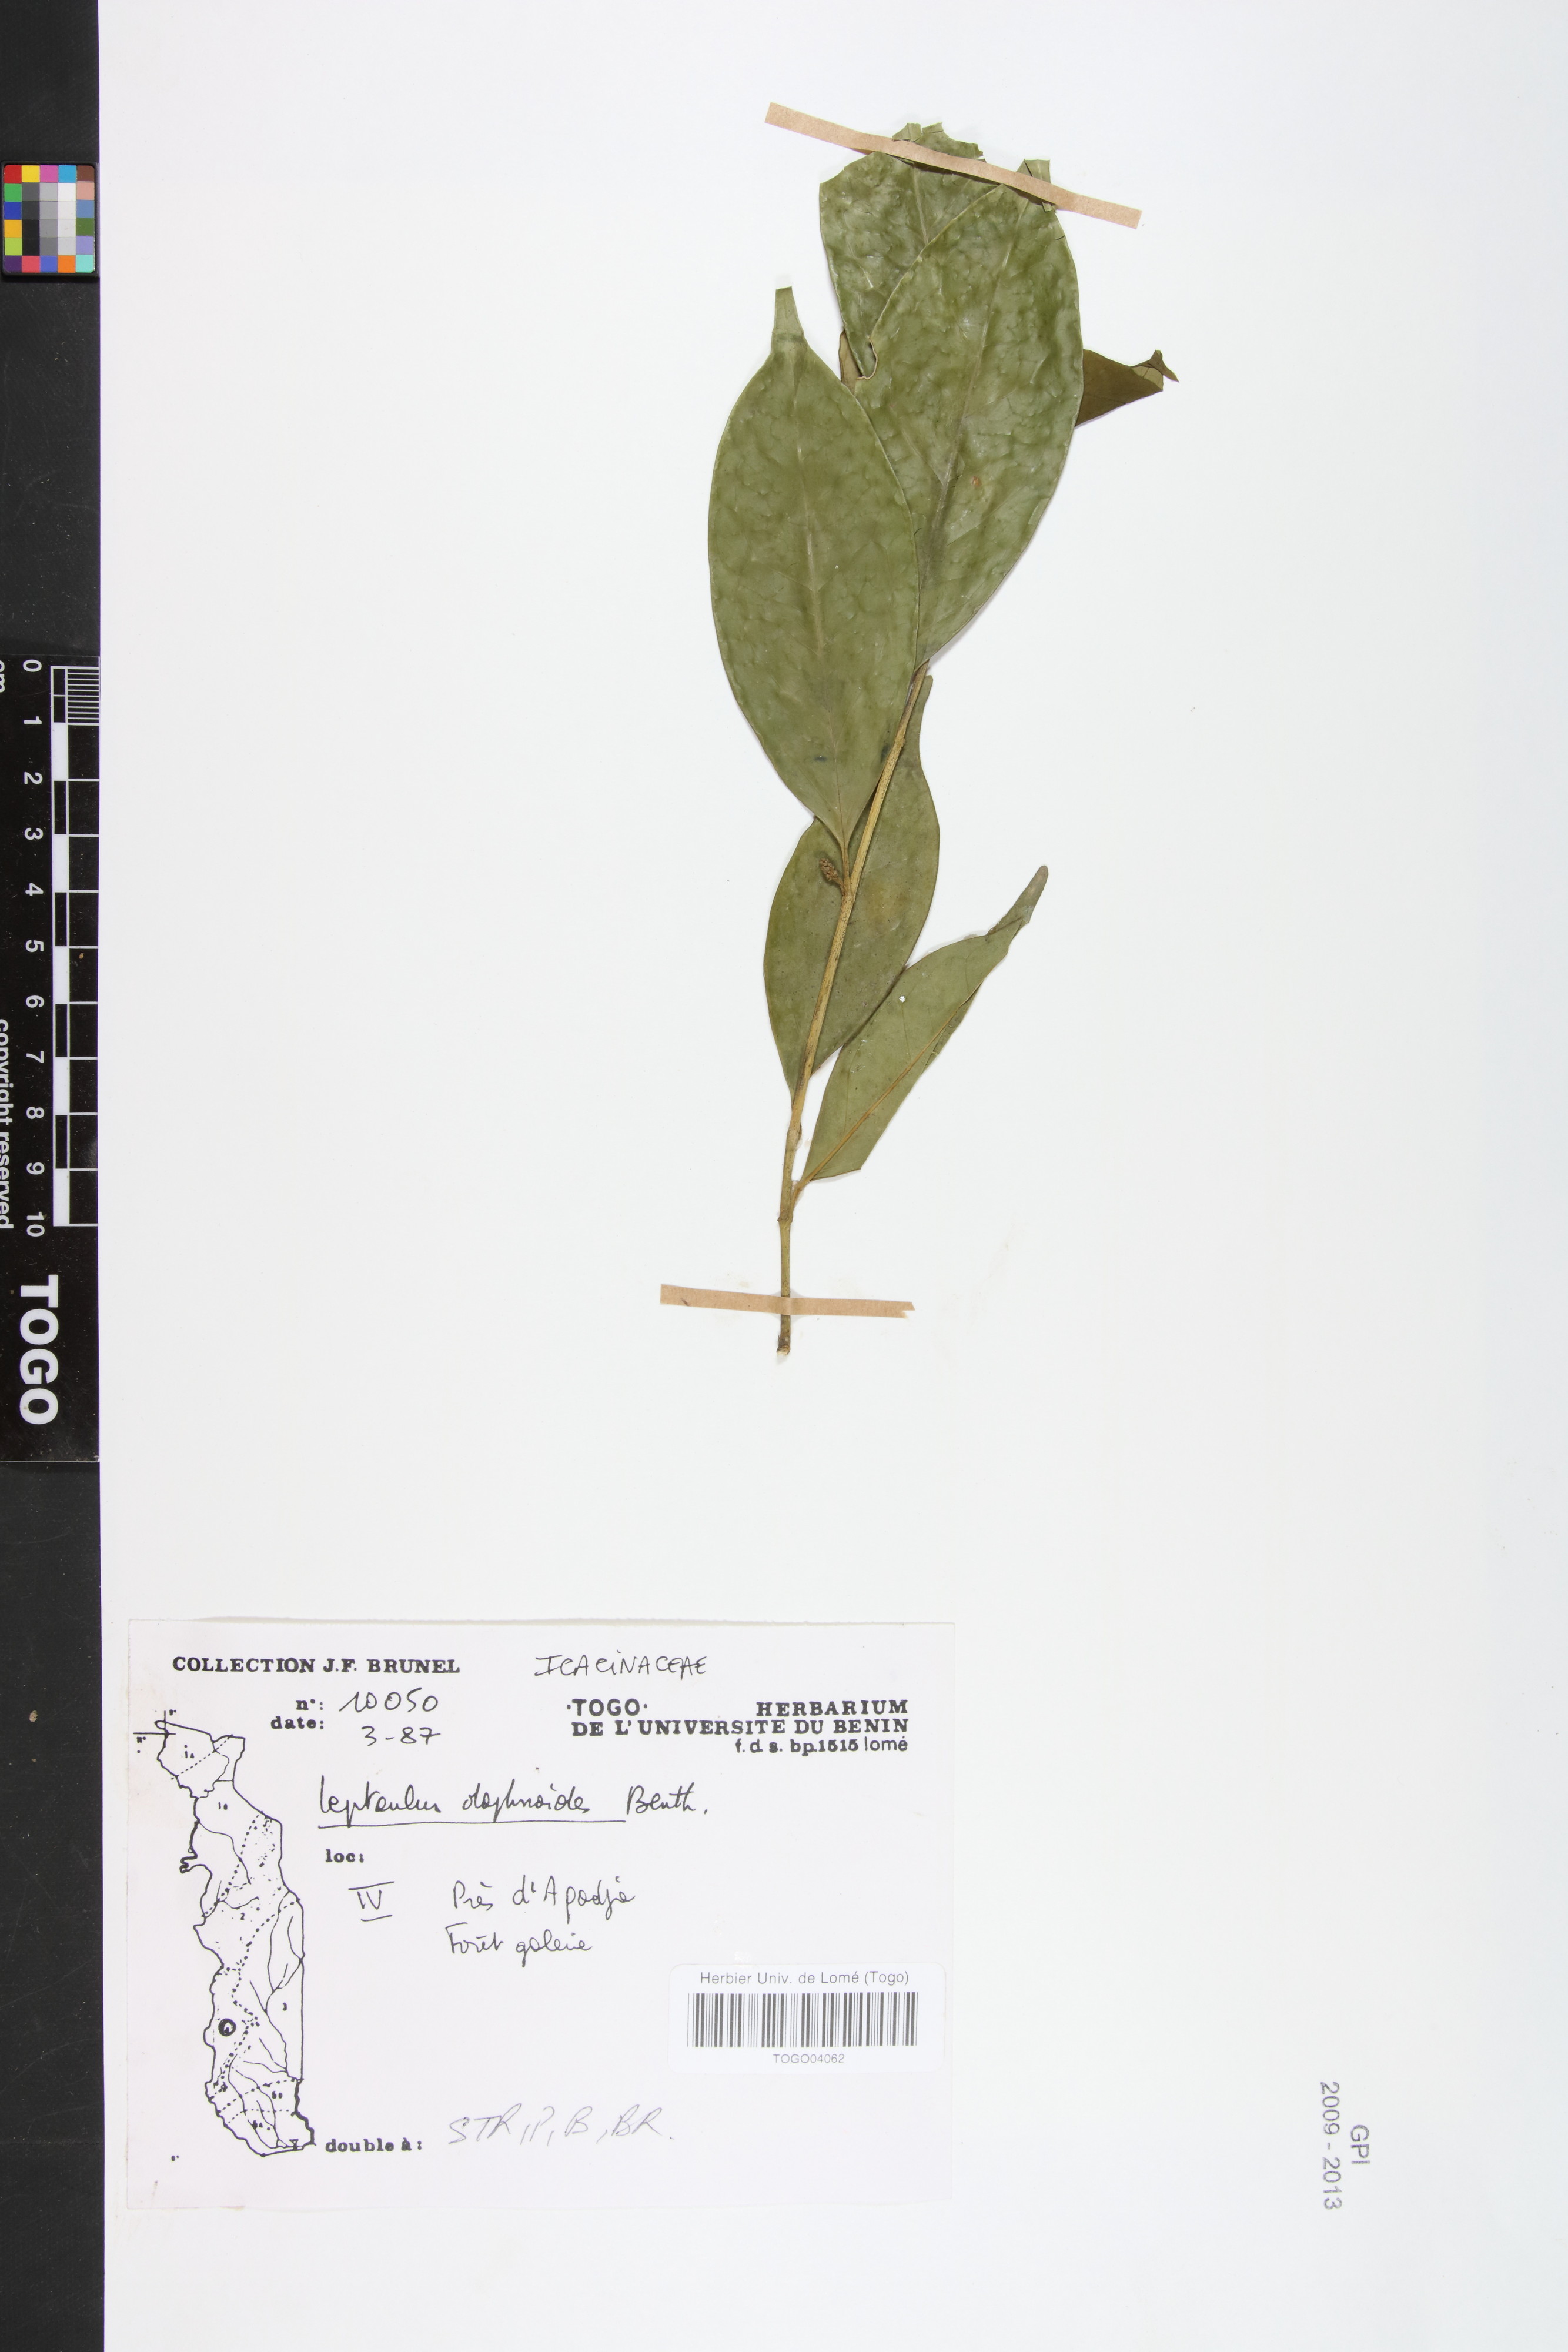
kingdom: Plantae
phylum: Tracheophyta
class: Magnoliopsida
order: Cardiopteridales
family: Cardiopteridaceae
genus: Leptaulus
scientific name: Leptaulus daphnoides
